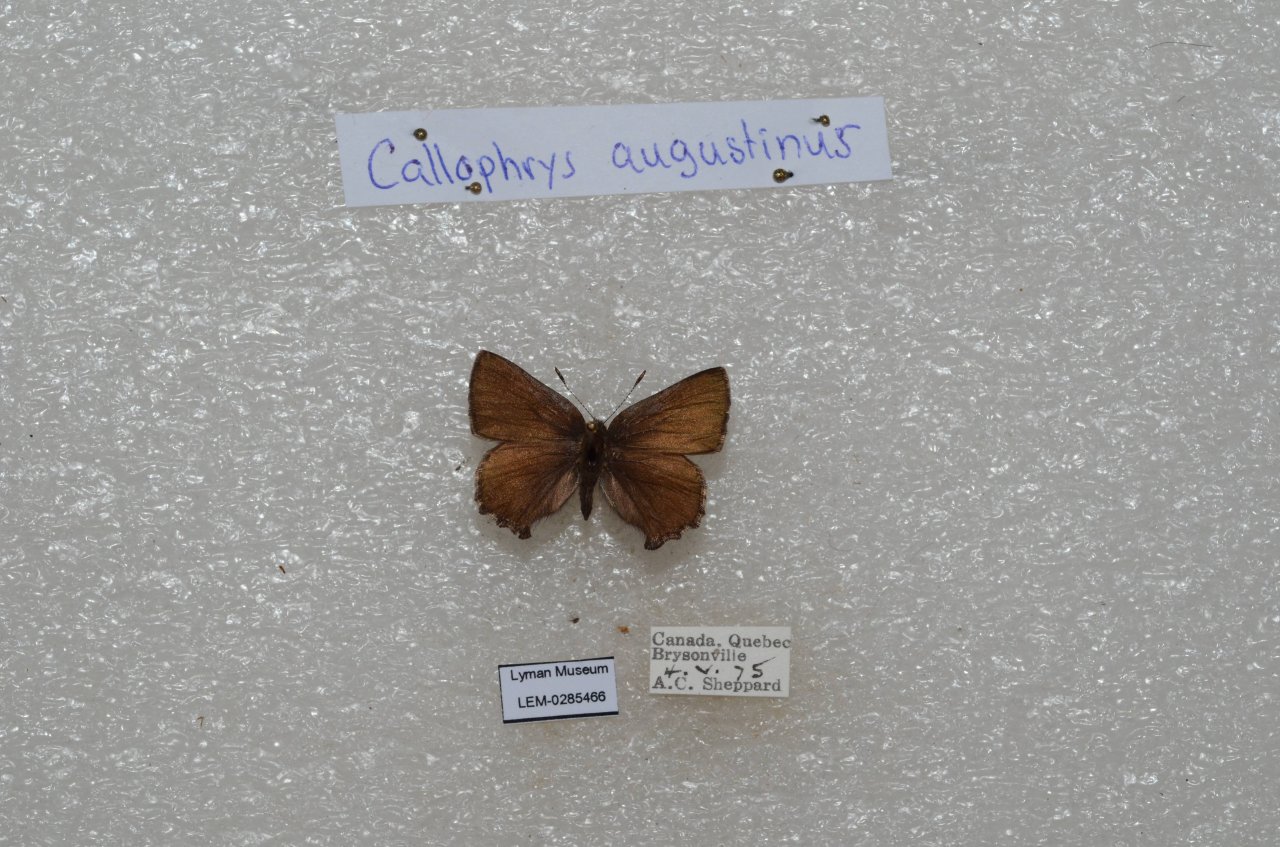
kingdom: Animalia
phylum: Arthropoda
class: Insecta
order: Lepidoptera
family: Lycaenidae
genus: Incisalia
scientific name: Incisalia irioides
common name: Brown Elfin
